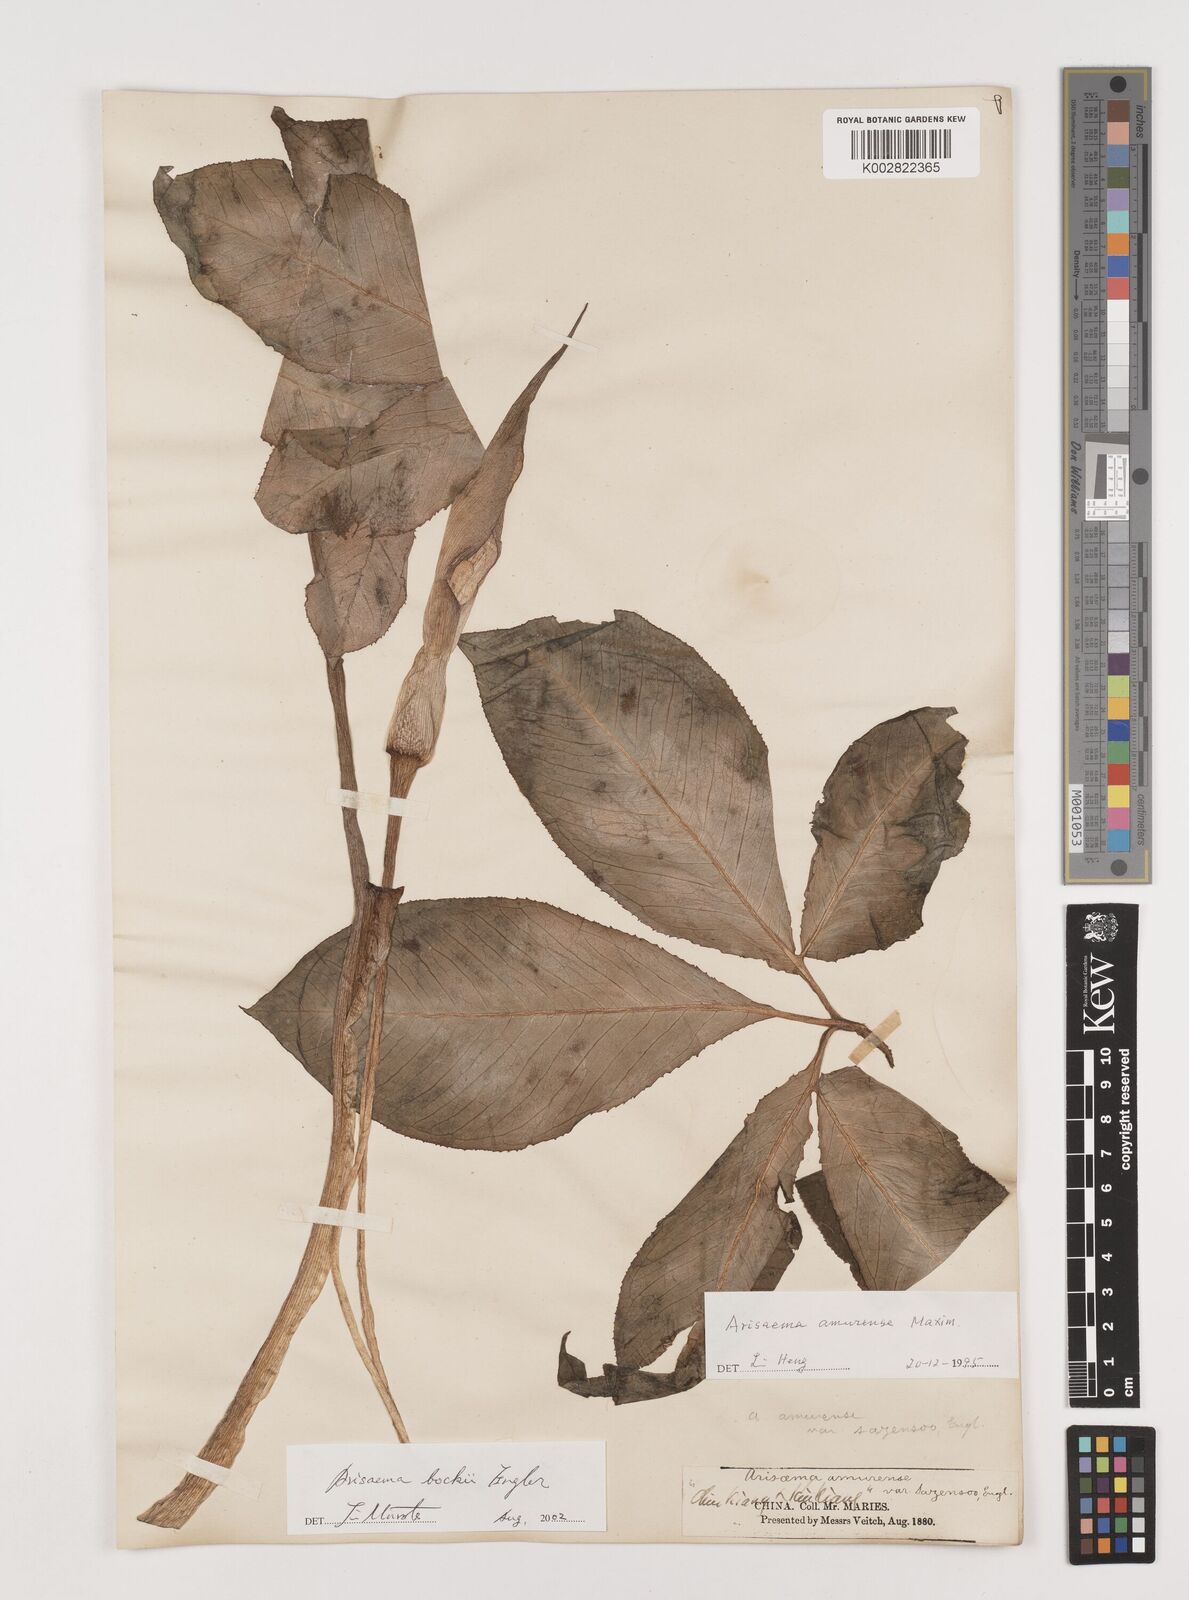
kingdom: Plantae
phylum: Tracheophyta
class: Liliopsida
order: Alismatales
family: Araceae
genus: Arisaema
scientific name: Arisaema bockii
